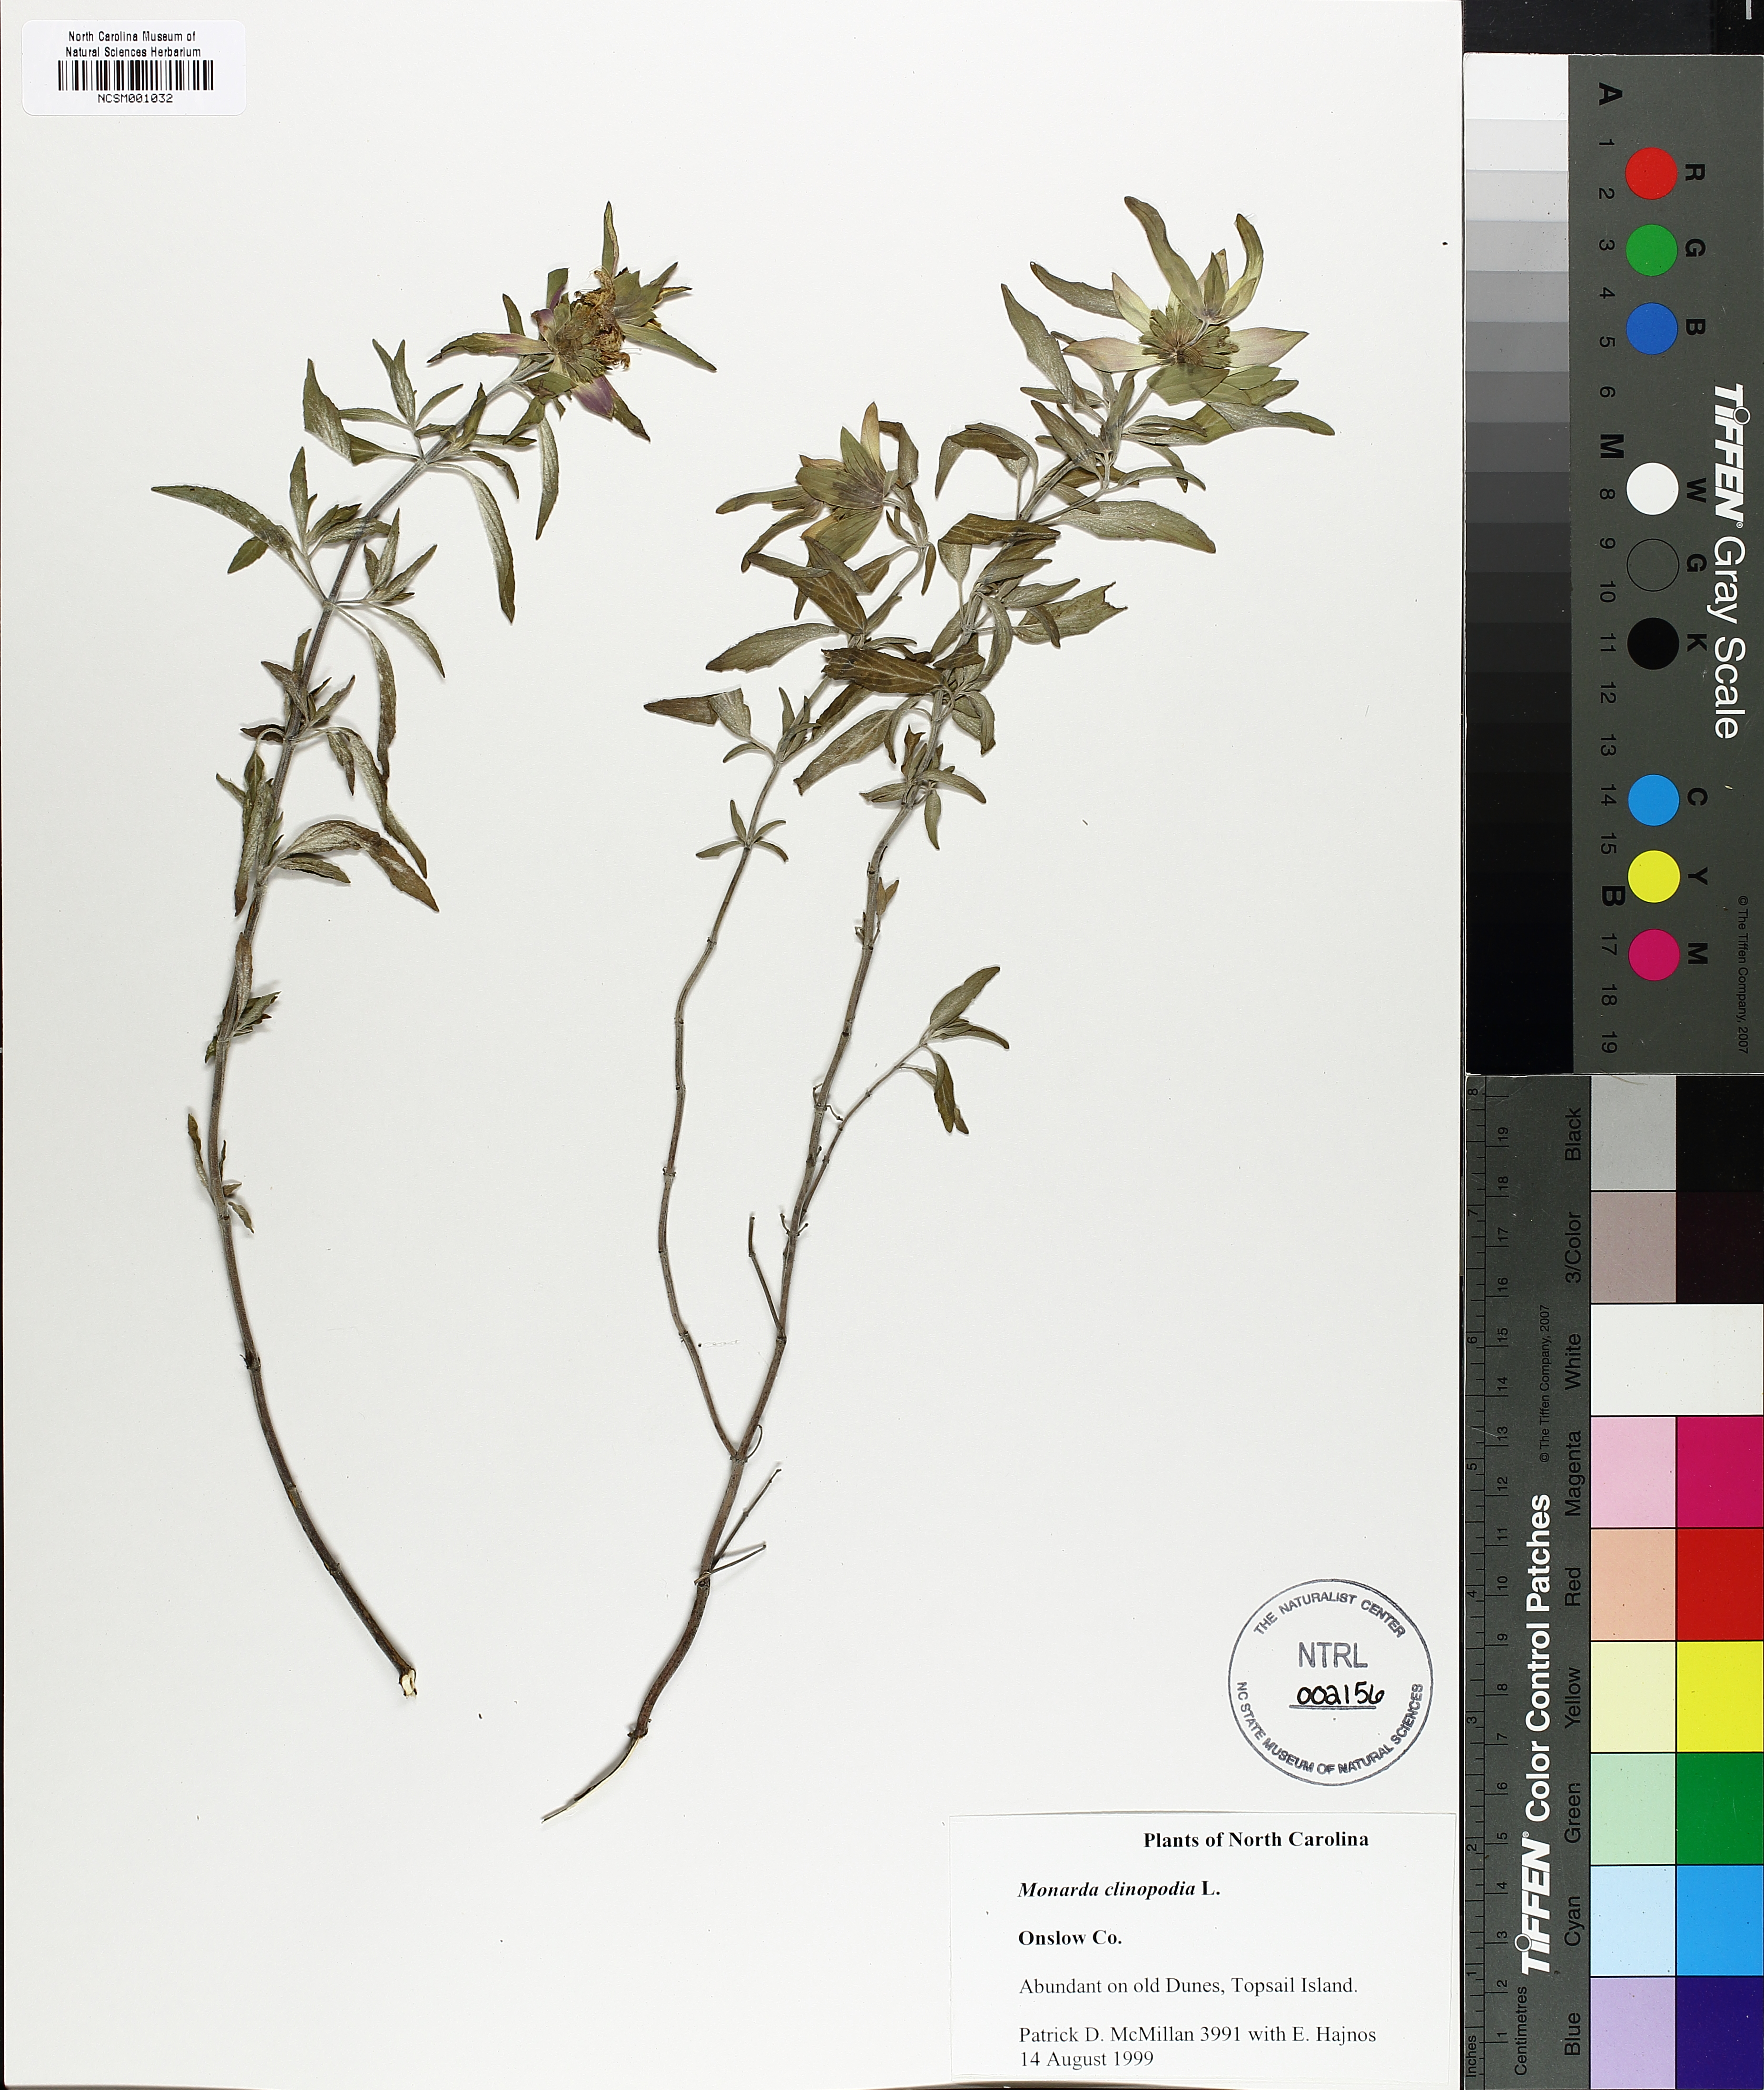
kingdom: Plantae
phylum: Tracheophyta
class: Magnoliopsida
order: Lamiales
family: Lamiaceae
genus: Monarda
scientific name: Monarda clinopodia
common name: Basil beebalm
